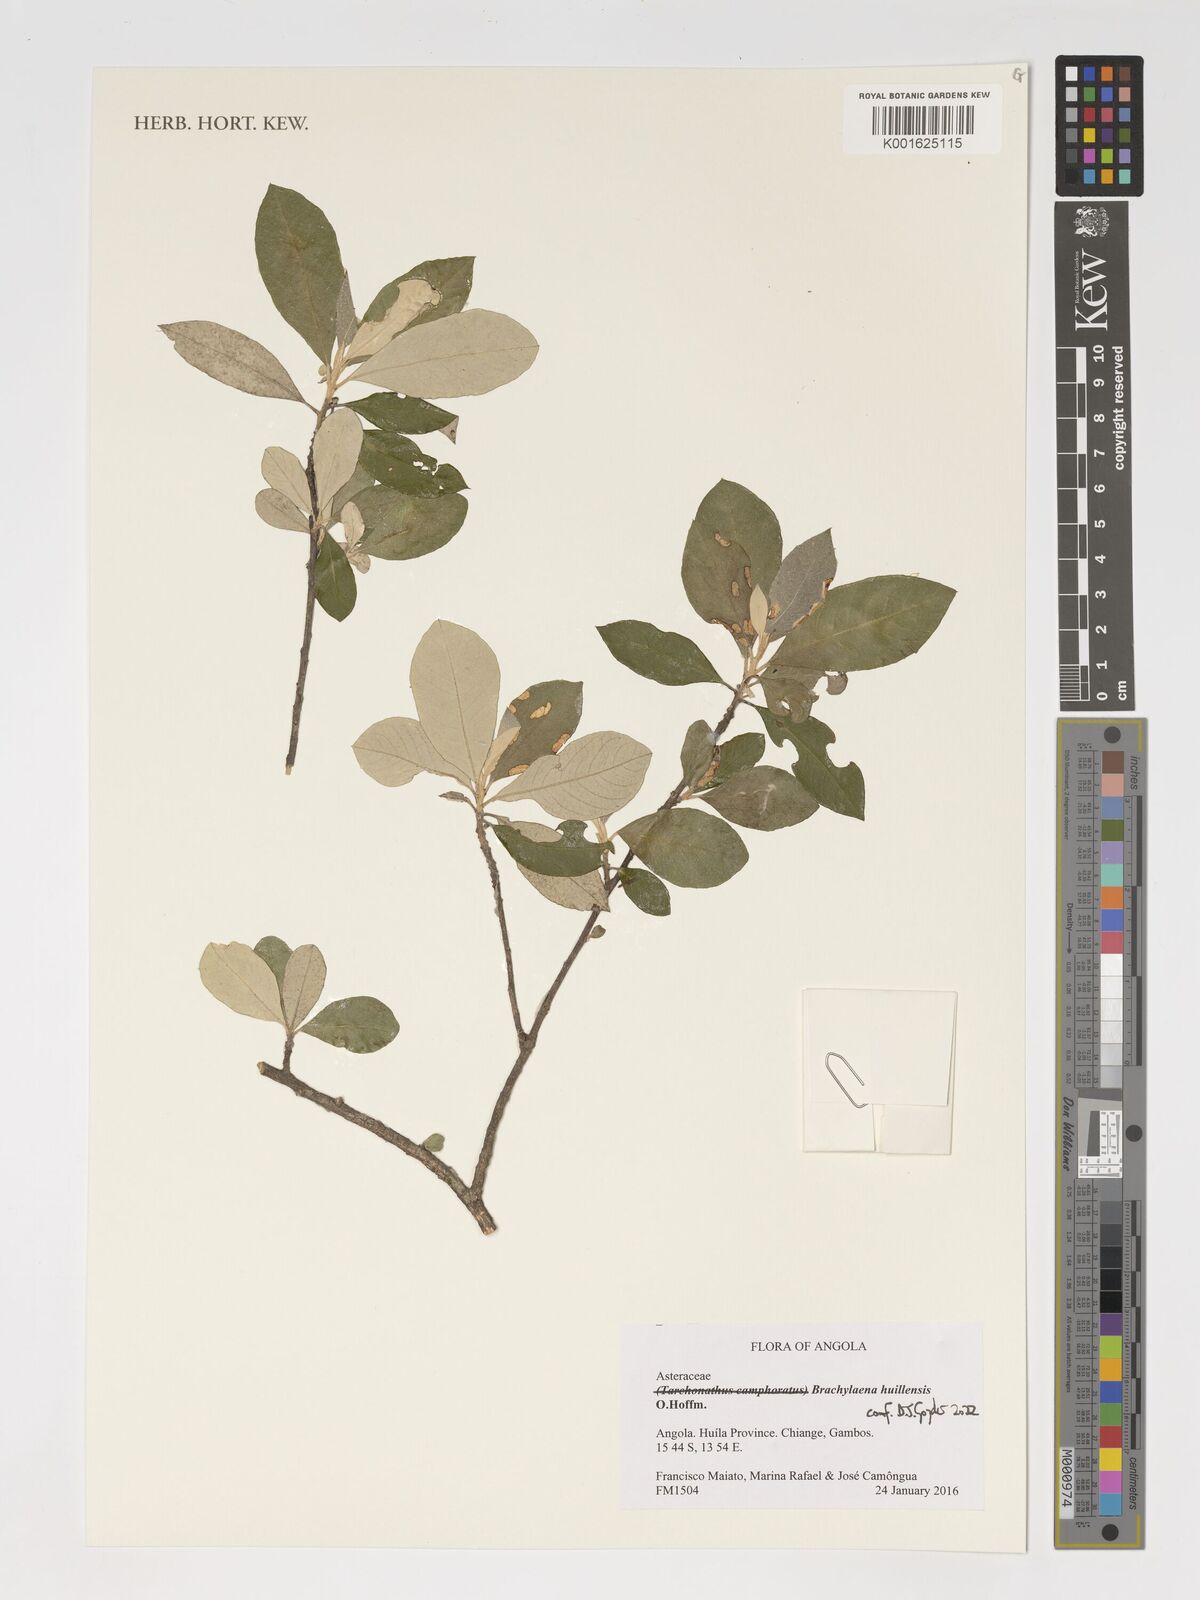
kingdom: Plantae
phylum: Tracheophyta
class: Magnoliopsida
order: Asterales
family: Asteraceae
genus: Brachylaena
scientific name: Brachylaena huillensis
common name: Silver-oak
